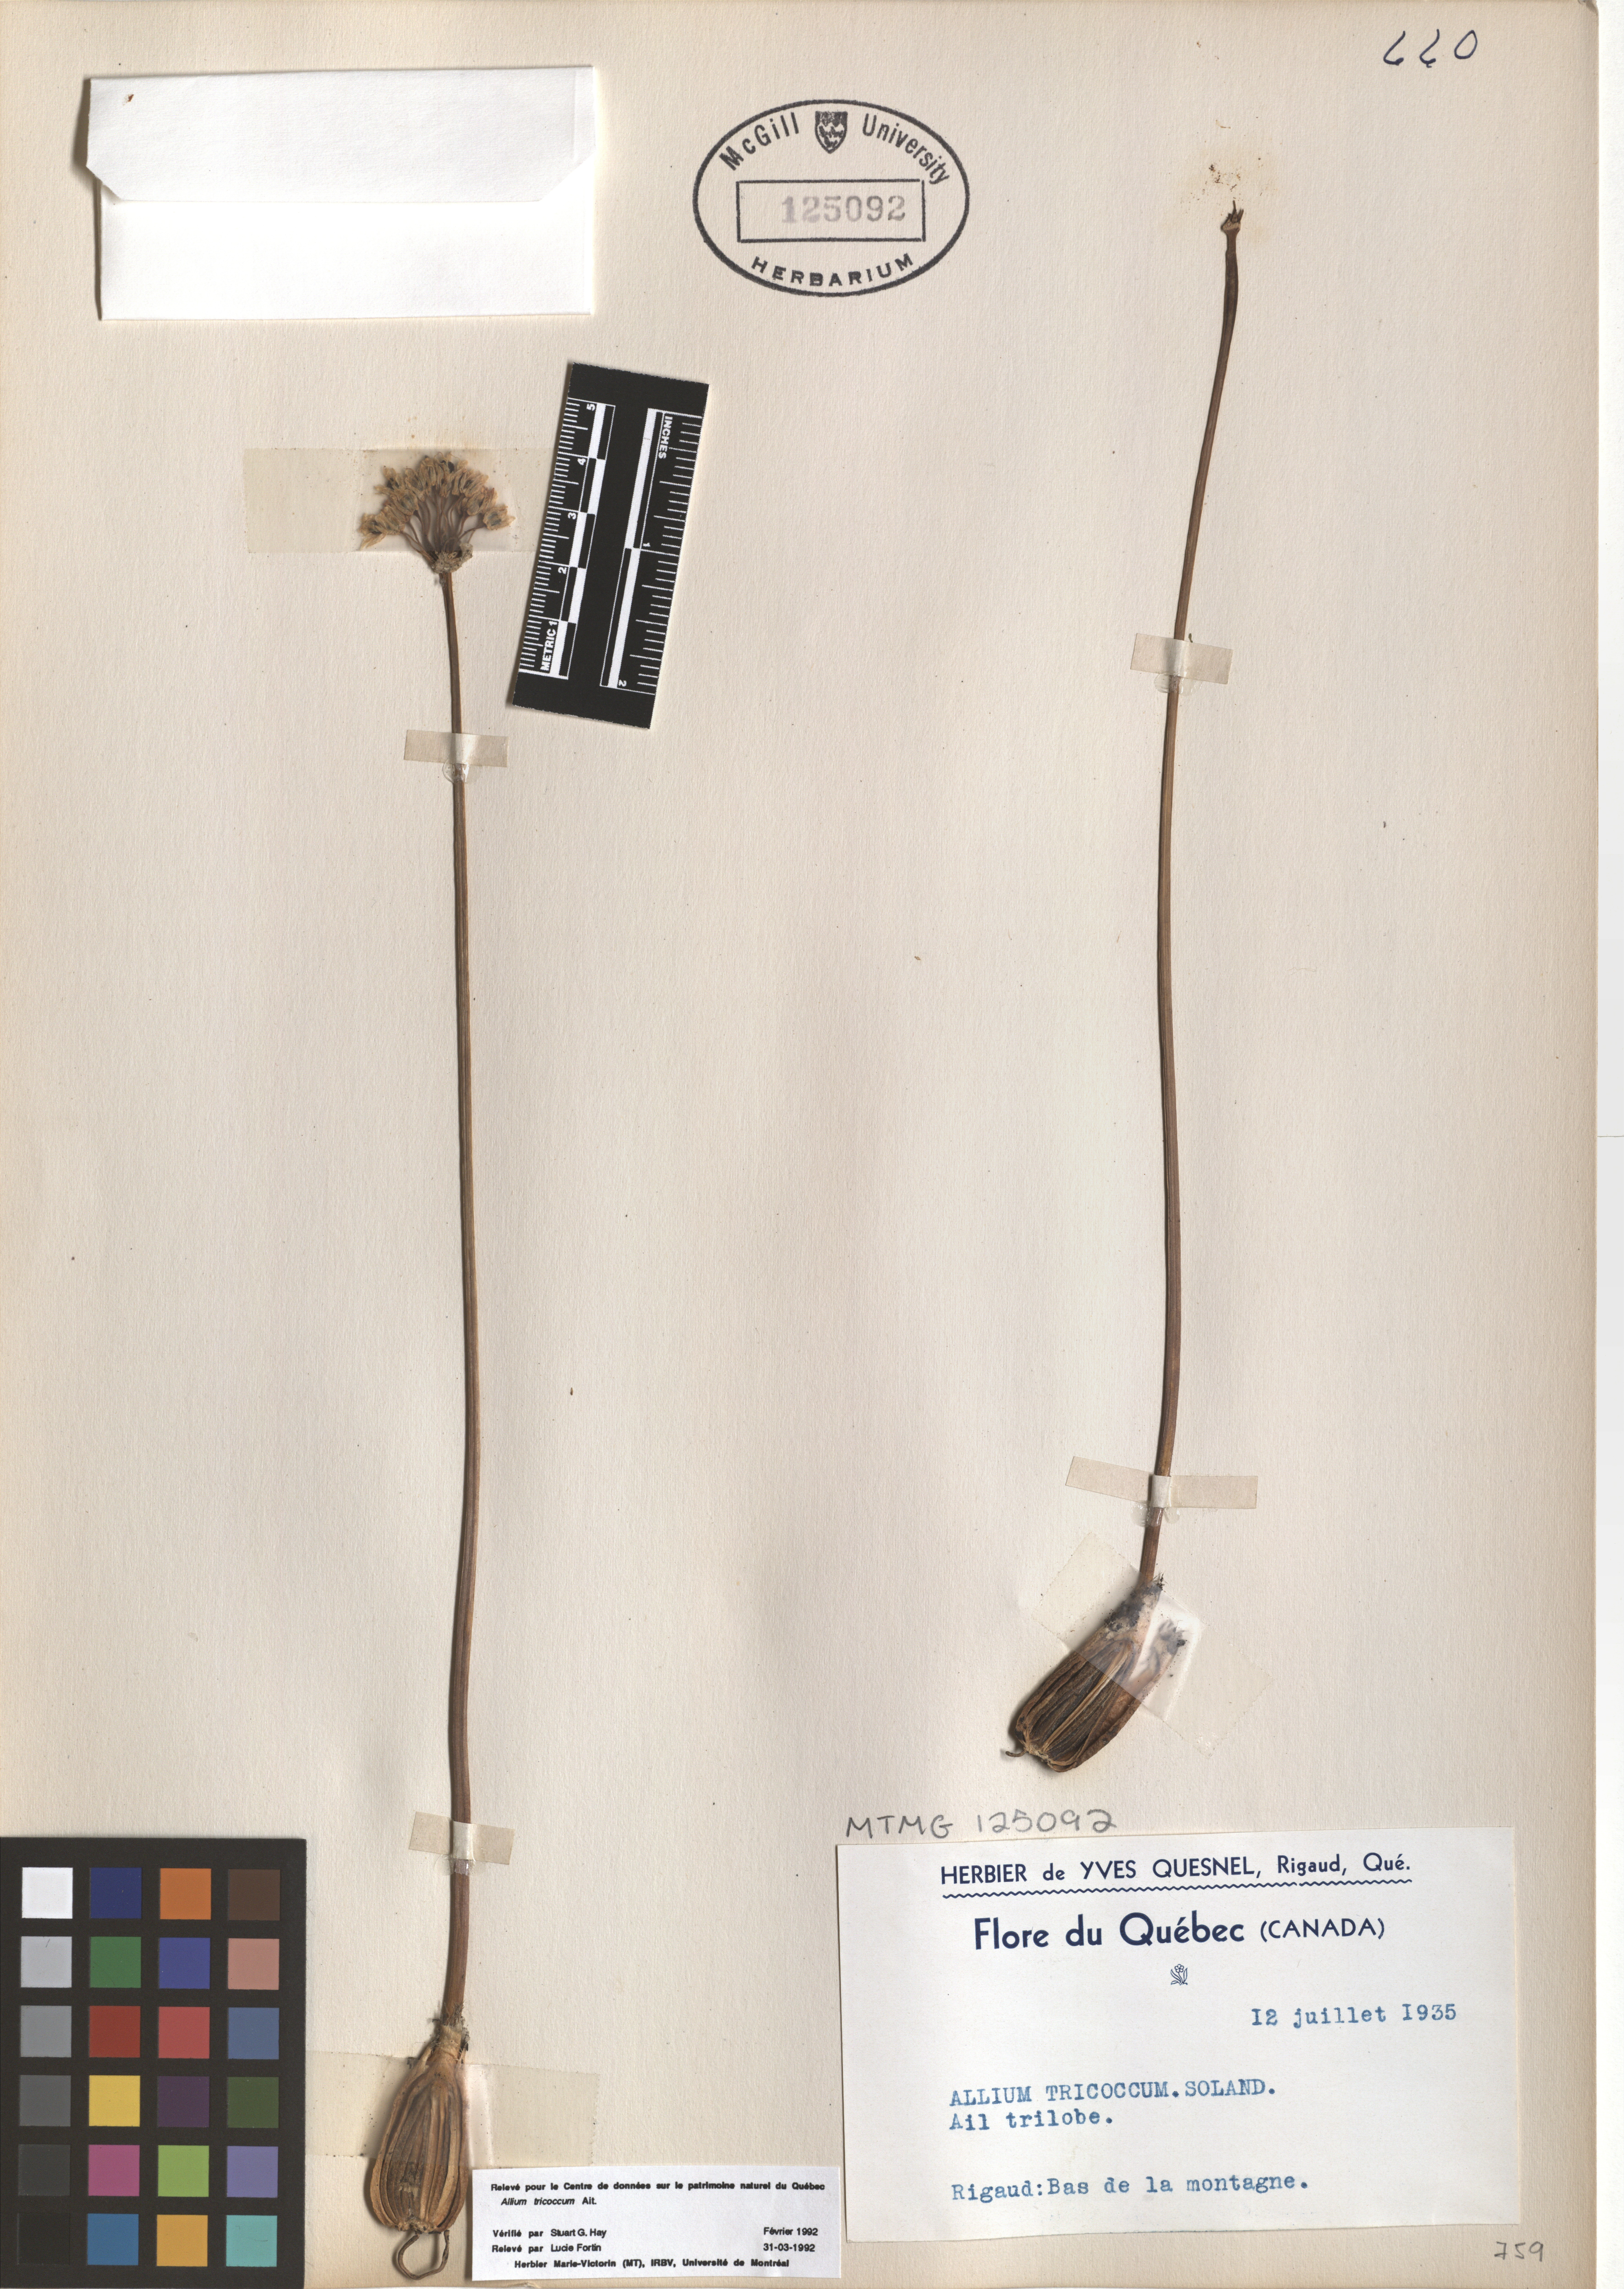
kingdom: Plantae
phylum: Tracheophyta
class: Liliopsida
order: Asparagales
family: Amaryllidaceae
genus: Allium
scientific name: Allium tricoccum
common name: Ramp
